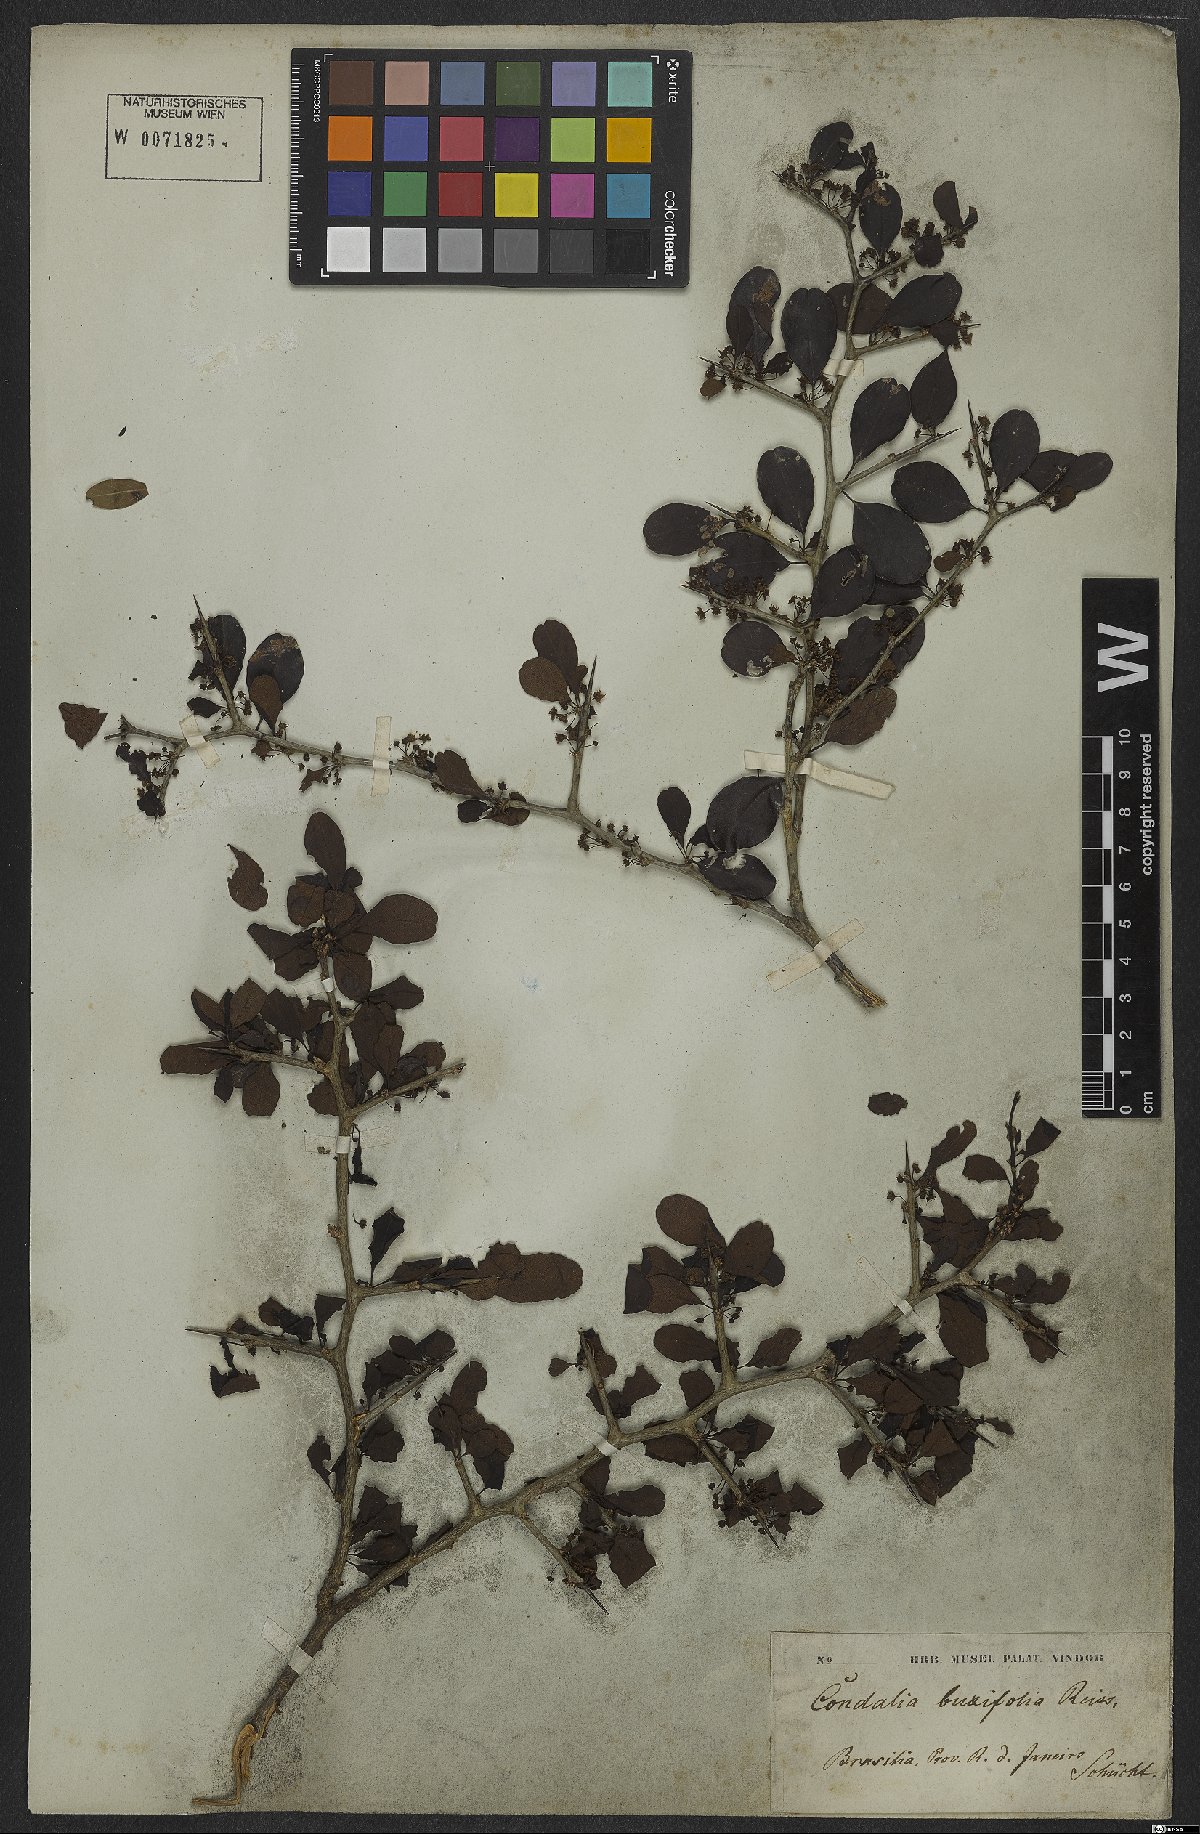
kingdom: Plantae
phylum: Tracheophyta
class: Magnoliopsida
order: Rosales
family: Rhamnaceae
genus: Condalia
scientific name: Condalia buxifolia
